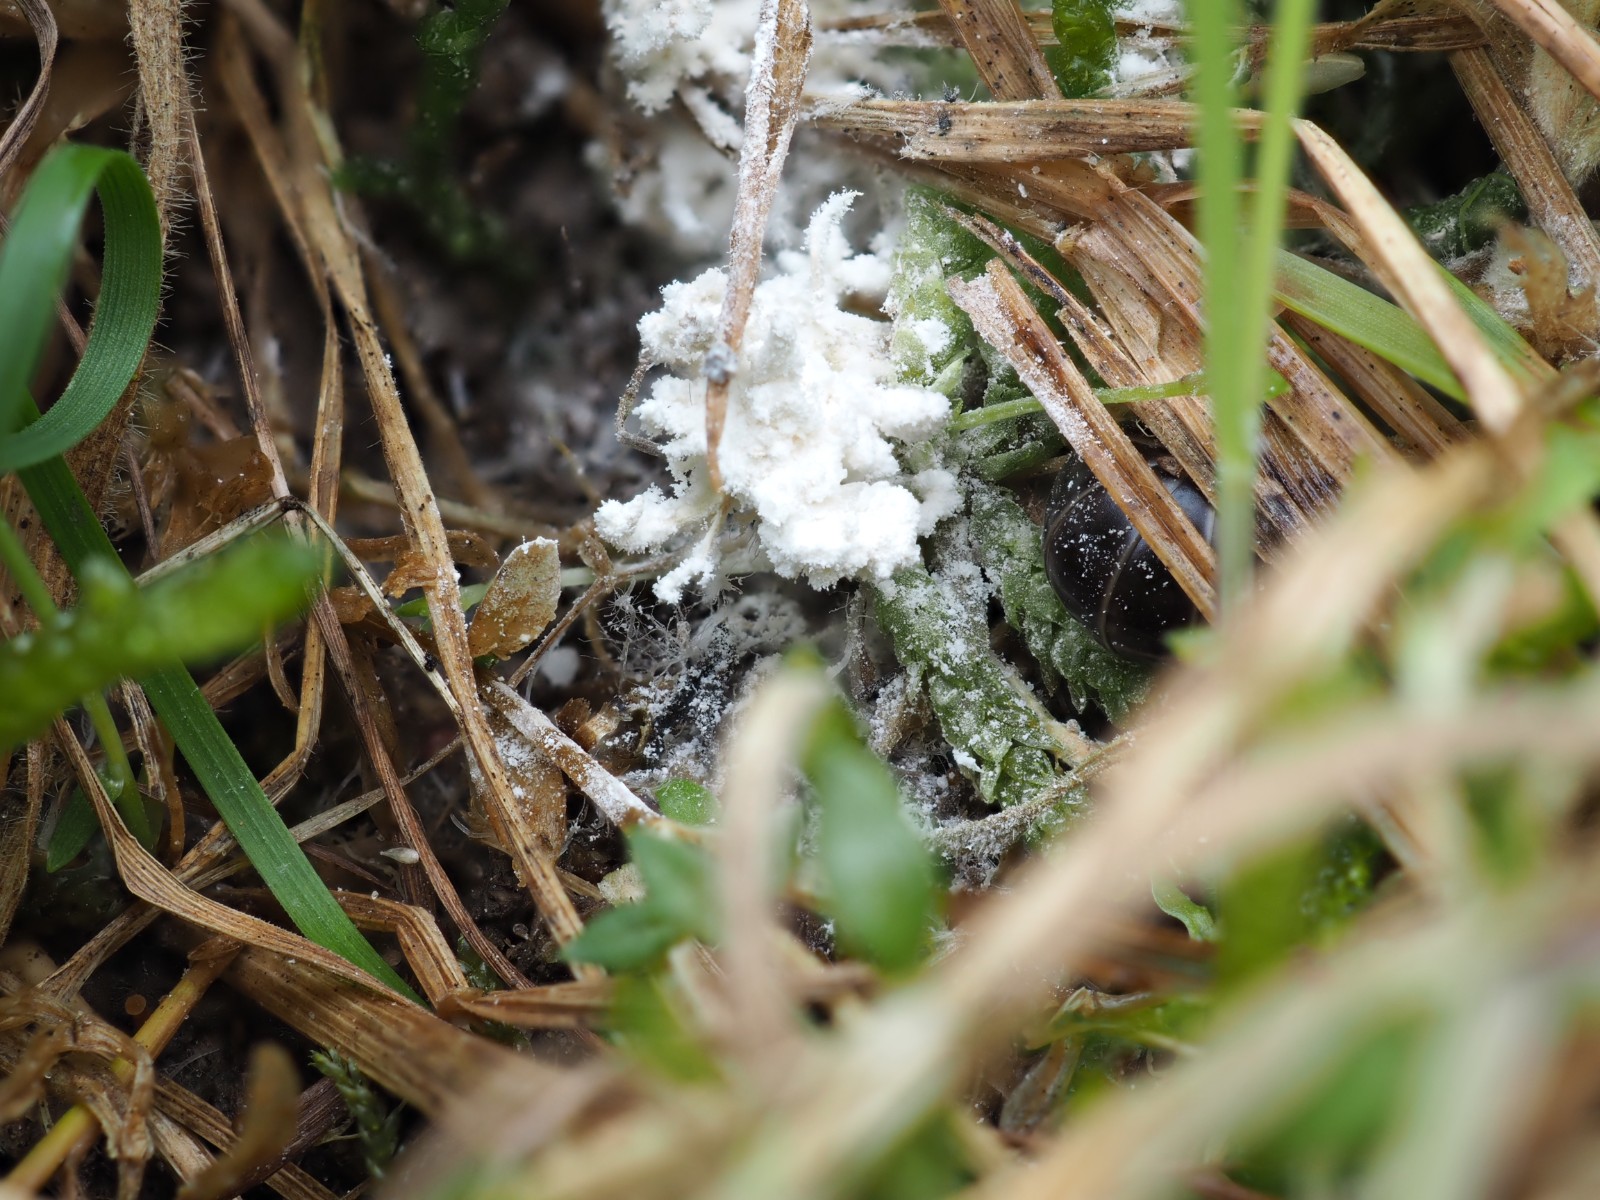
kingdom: Fungi
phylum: Ascomycota
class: Sordariomycetes
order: Hypocreales
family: Cordycipitaceae
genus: Cordyceps
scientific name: Cordyceps farinosa
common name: melet snyltekølle
